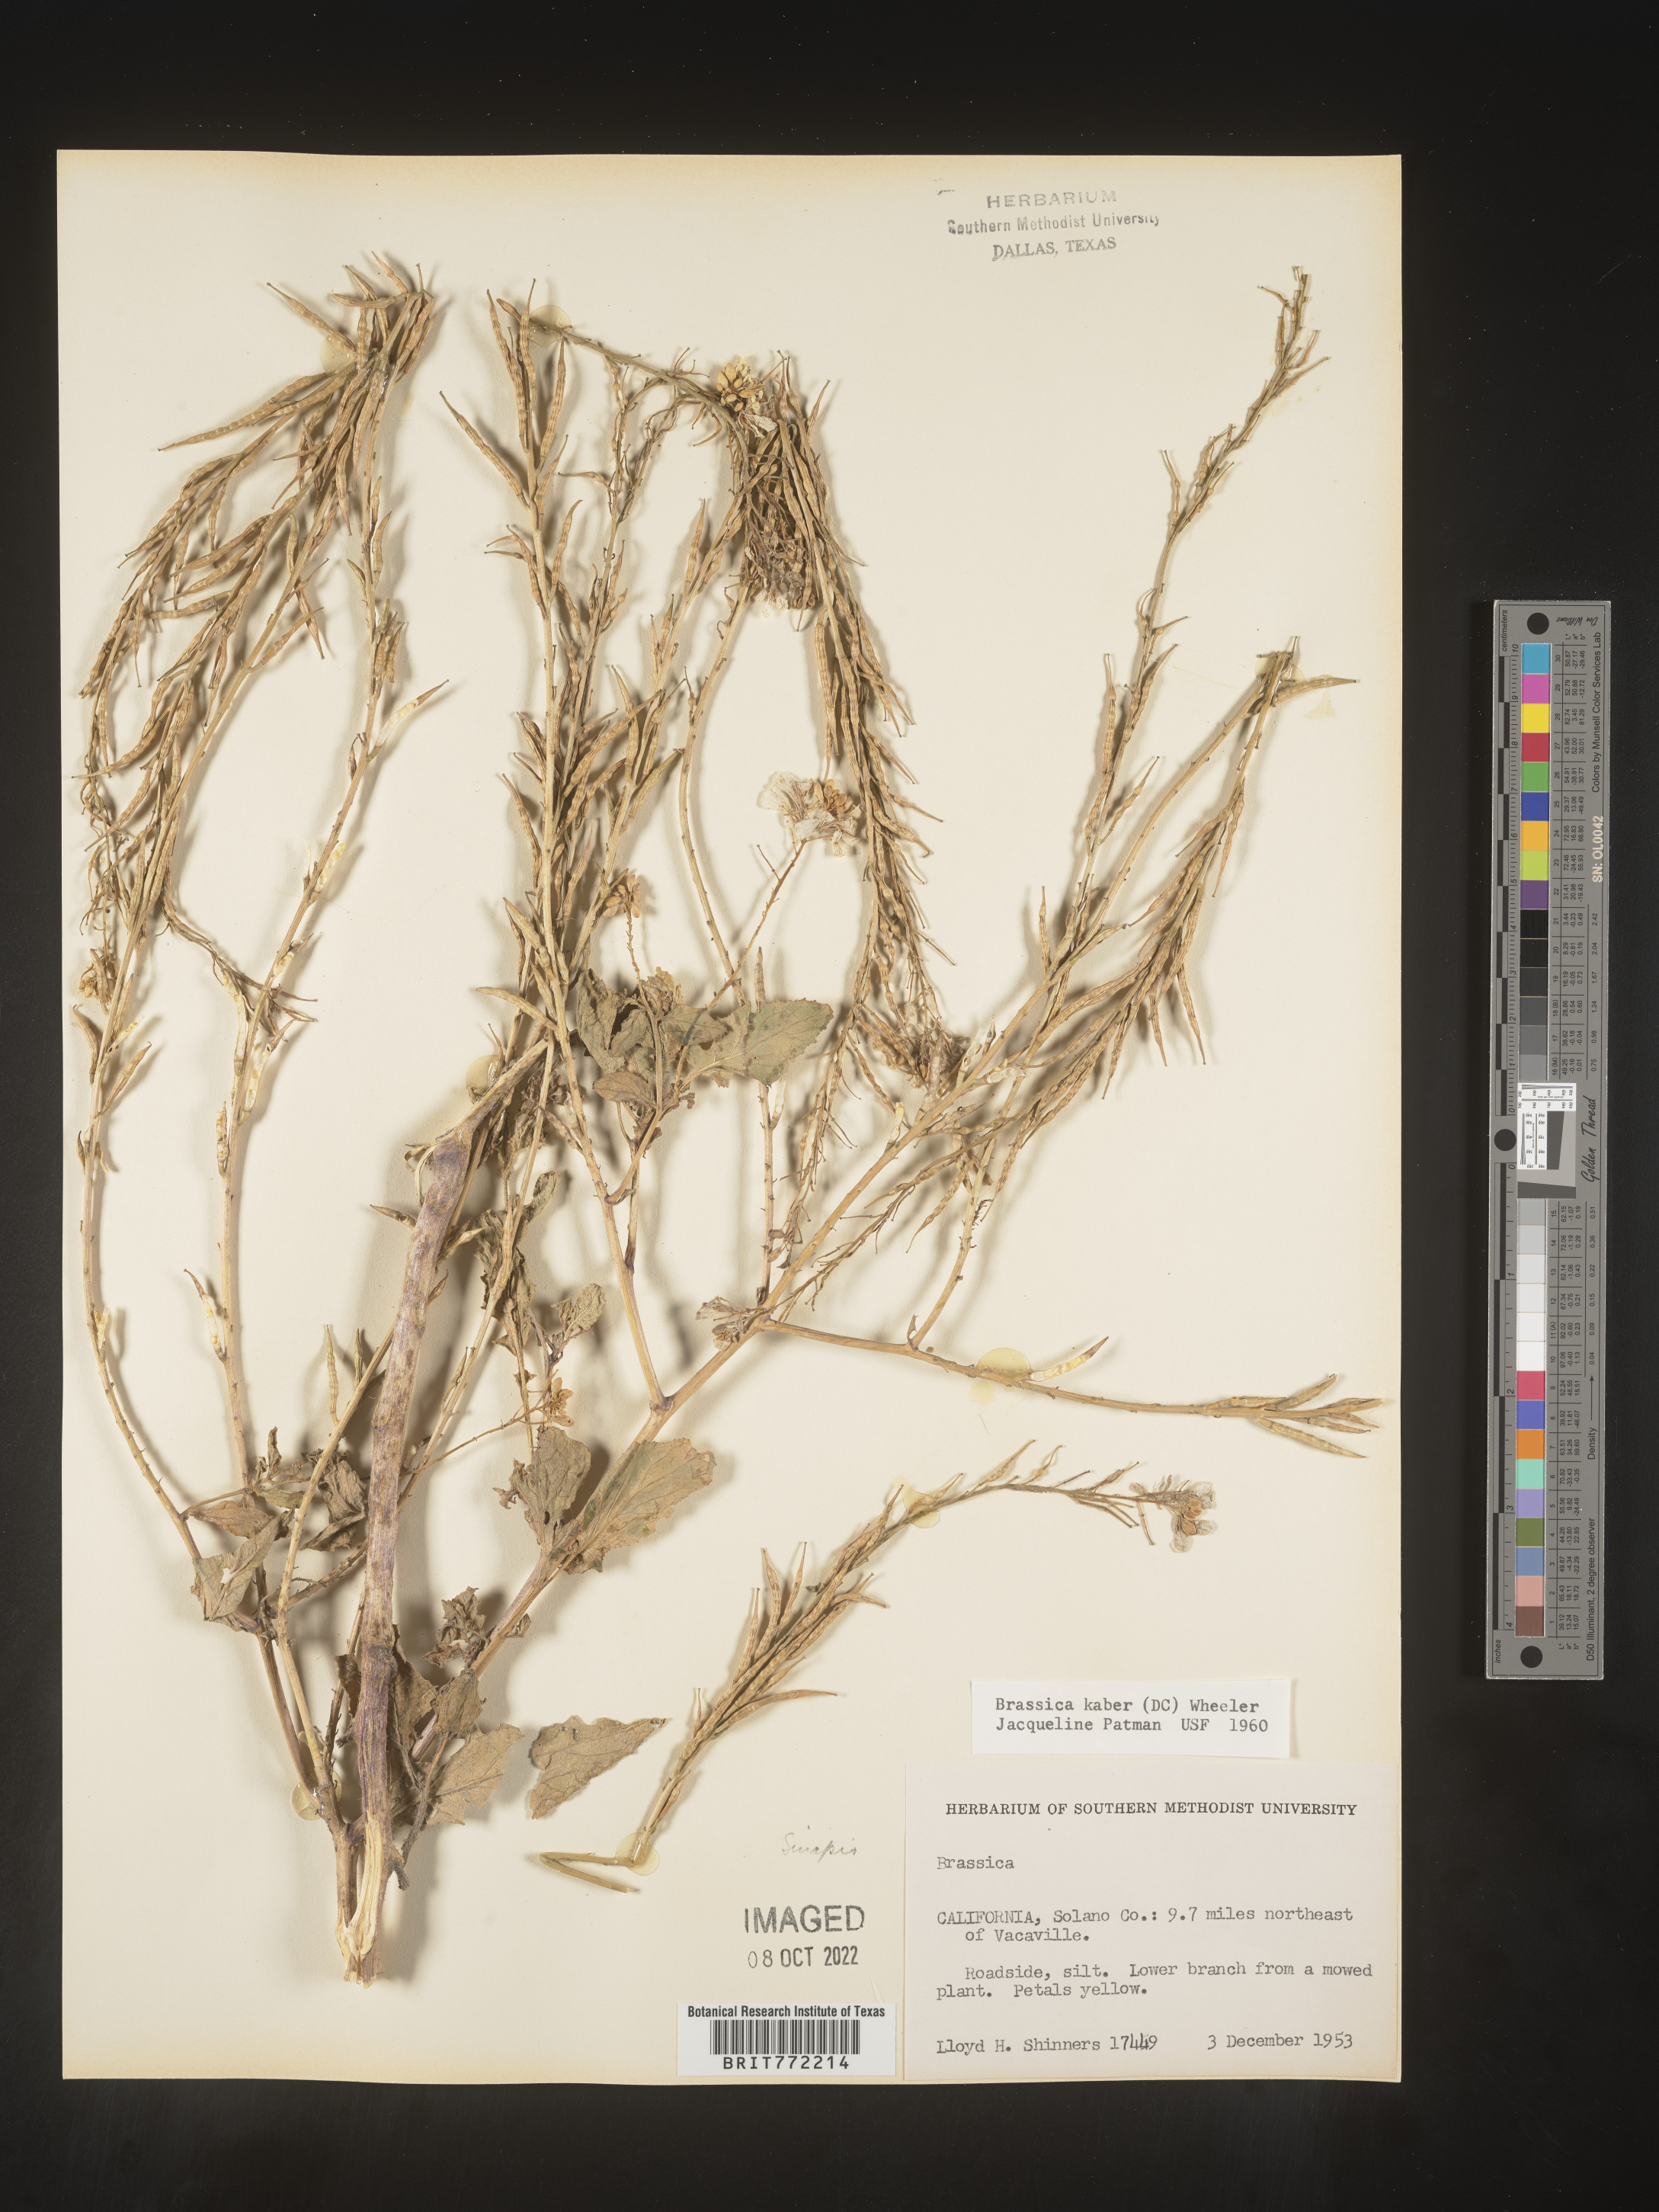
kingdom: Plantae
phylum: Tracheophyta
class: Magnoliopsida
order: Brassicales
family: Brassicaceae
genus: Sinapis
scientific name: Sinapis arvensis
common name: Charlock
